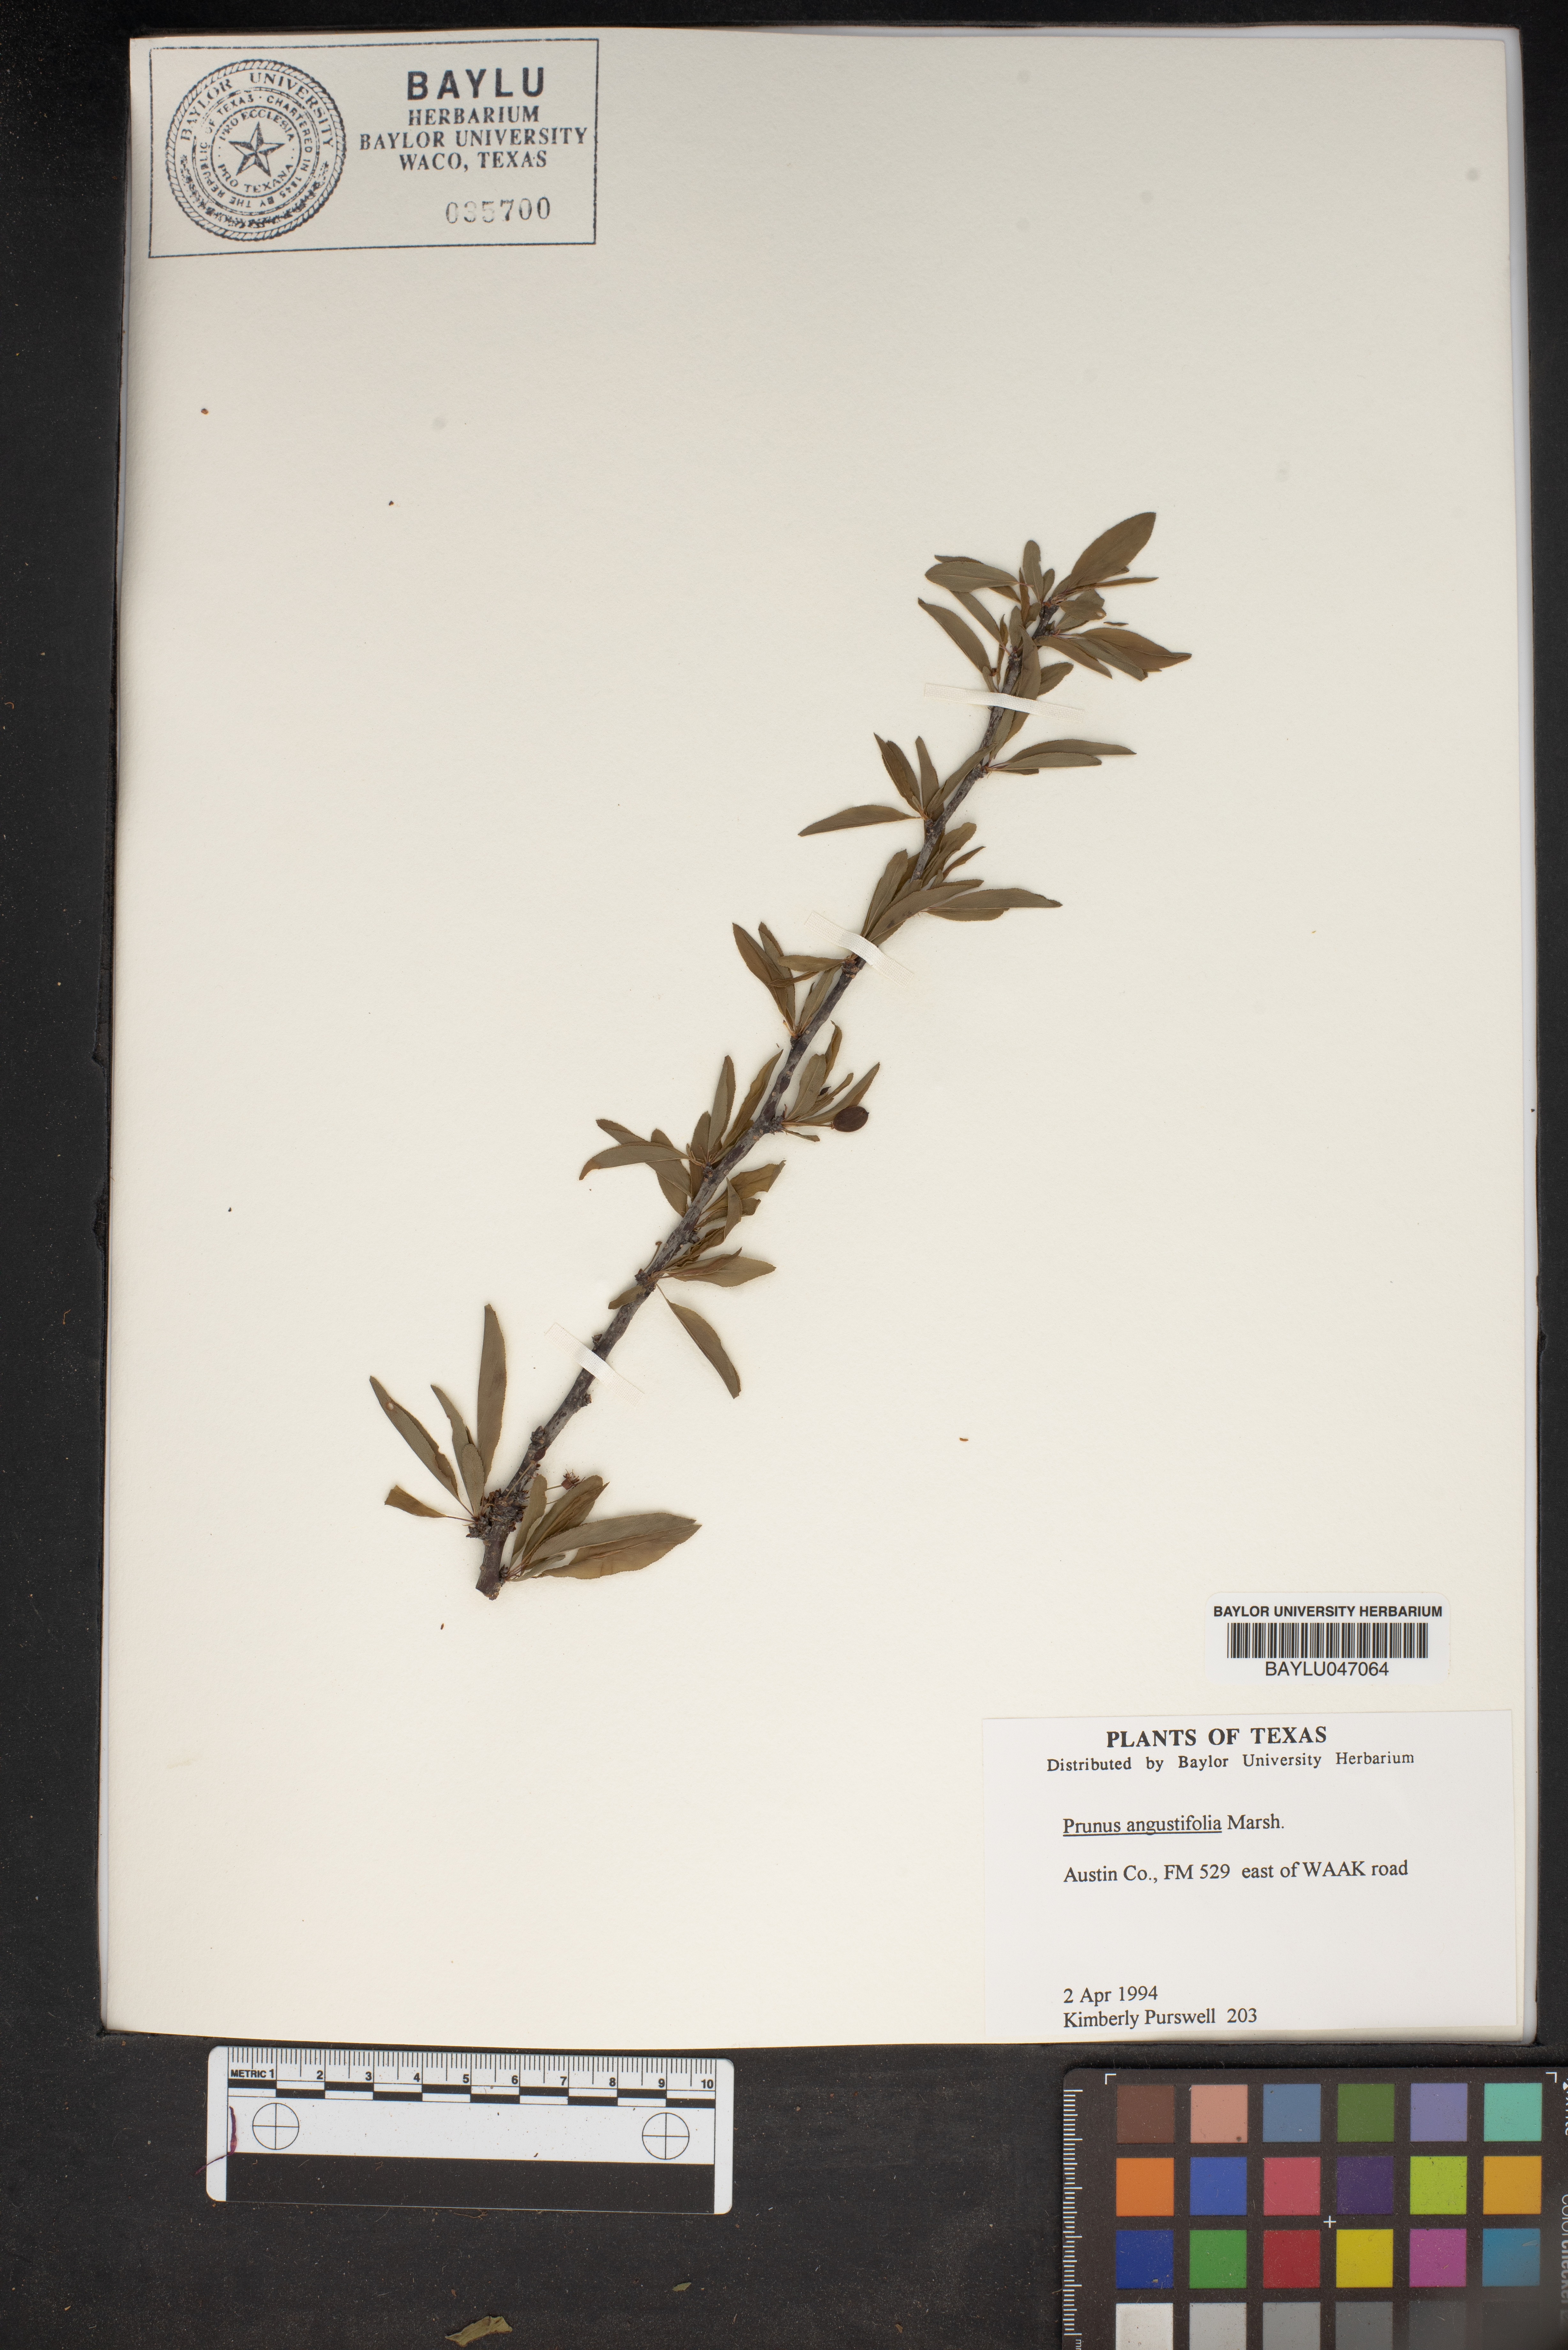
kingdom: Plantae
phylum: Tracheophyta
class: Magnoliopsida
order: Rosales
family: Rosaceae
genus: Prunus
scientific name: Prunus angustifolia
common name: Cherokee plum
